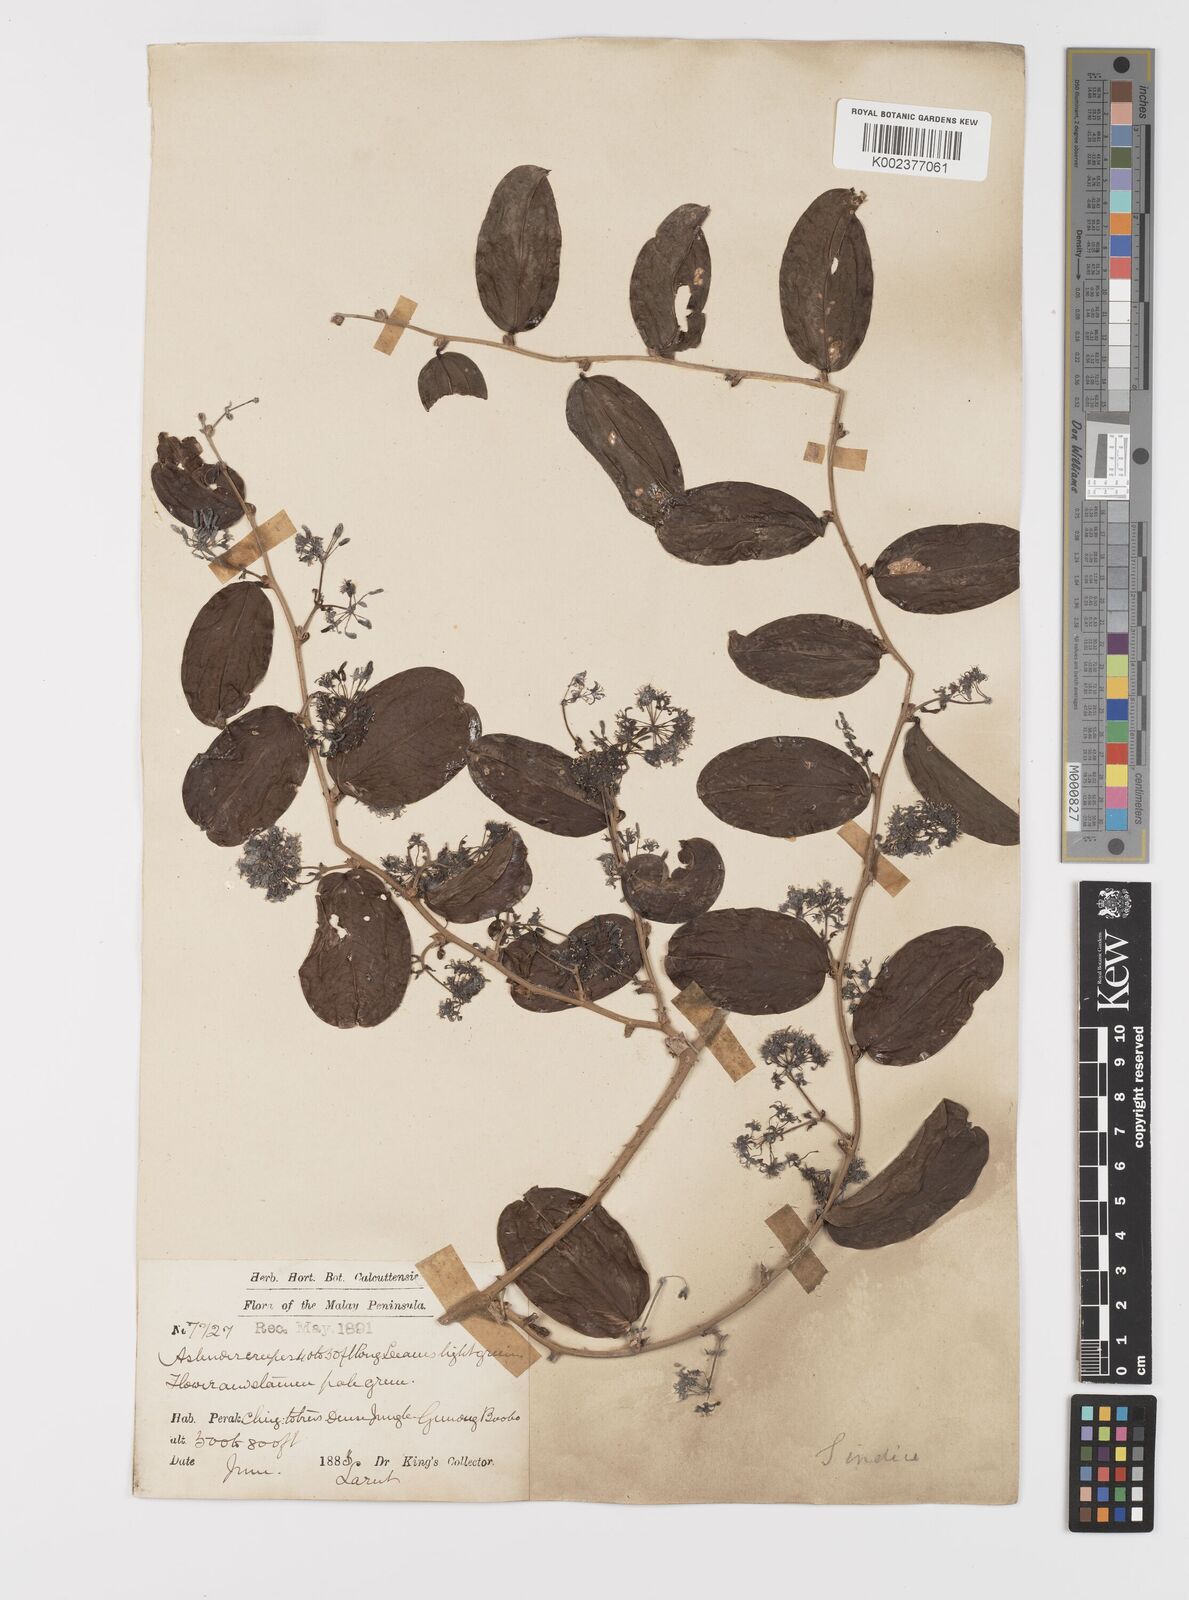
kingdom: Plantae
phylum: Tracheophyta
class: Liliopsida
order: Liliales
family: Smilacaceae
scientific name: Smilacaceae
